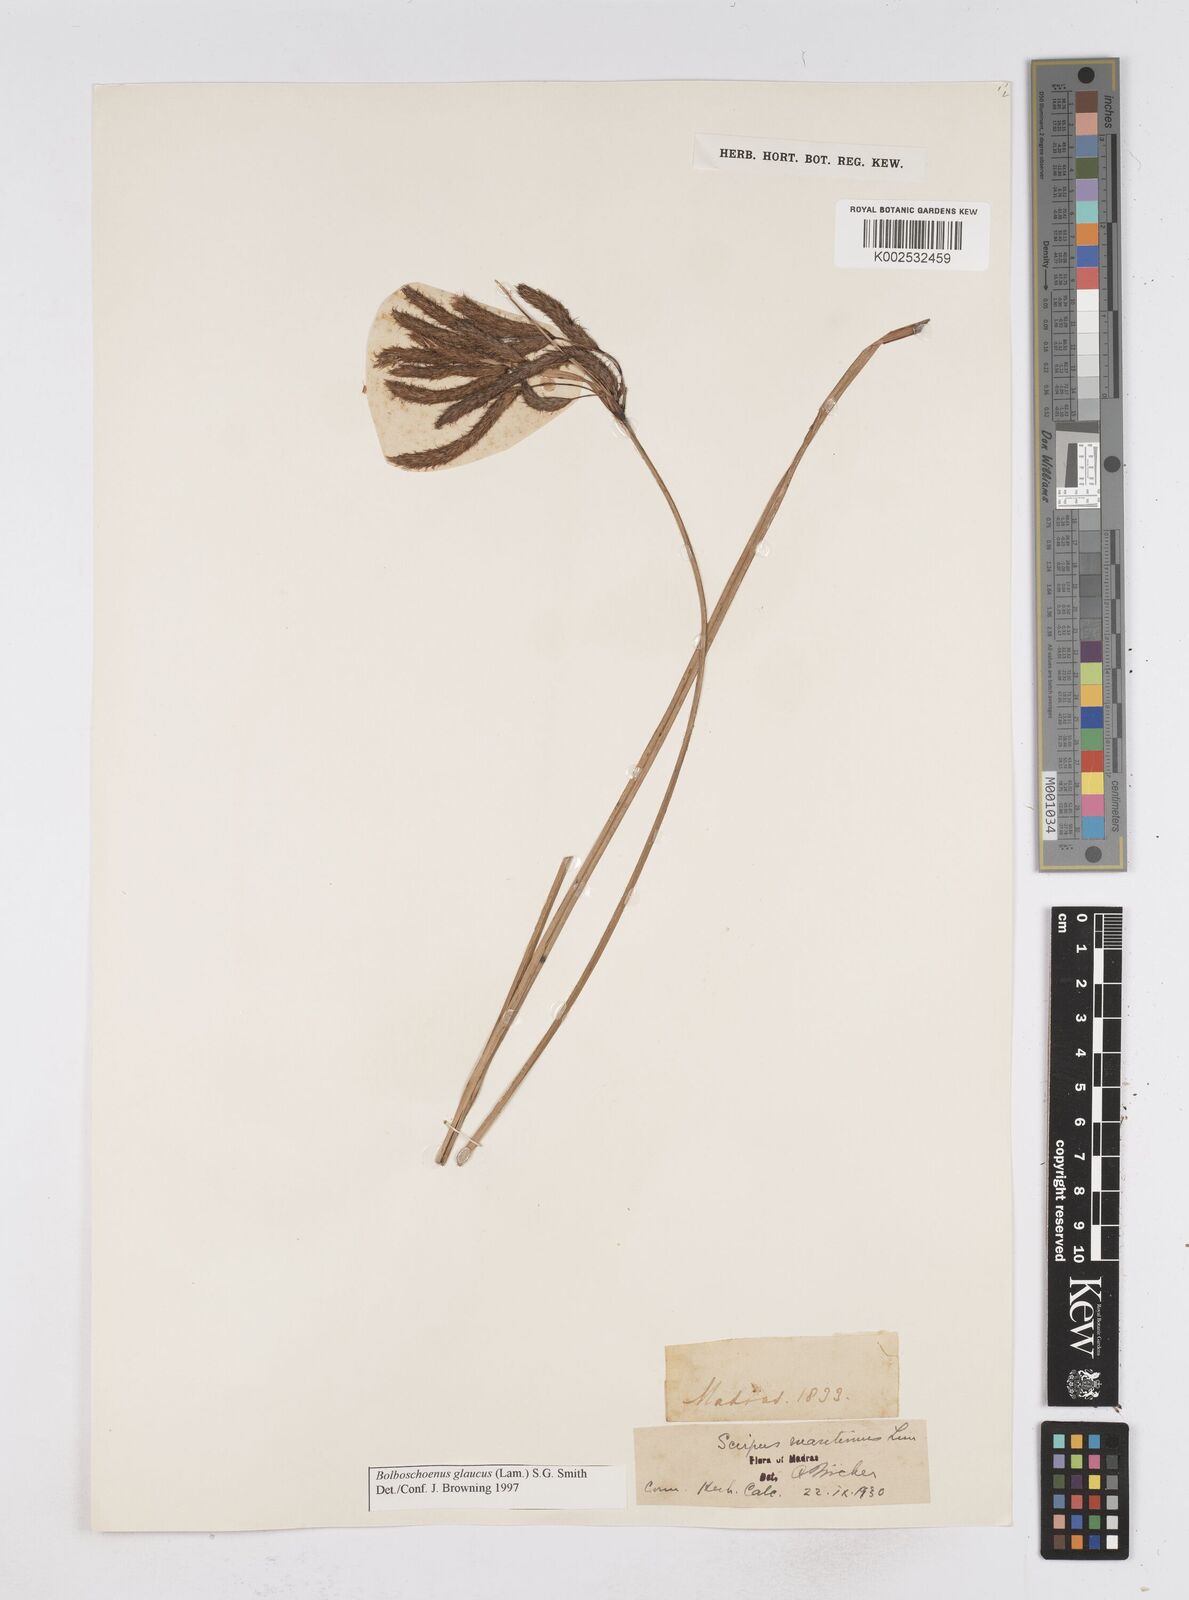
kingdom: Plantae
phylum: Tracheophyta
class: Liliopsida
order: Poales
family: Cyperaceae
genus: Bolboschoenus
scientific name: Bolboschoenus maritimus
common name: Sea club-rush
